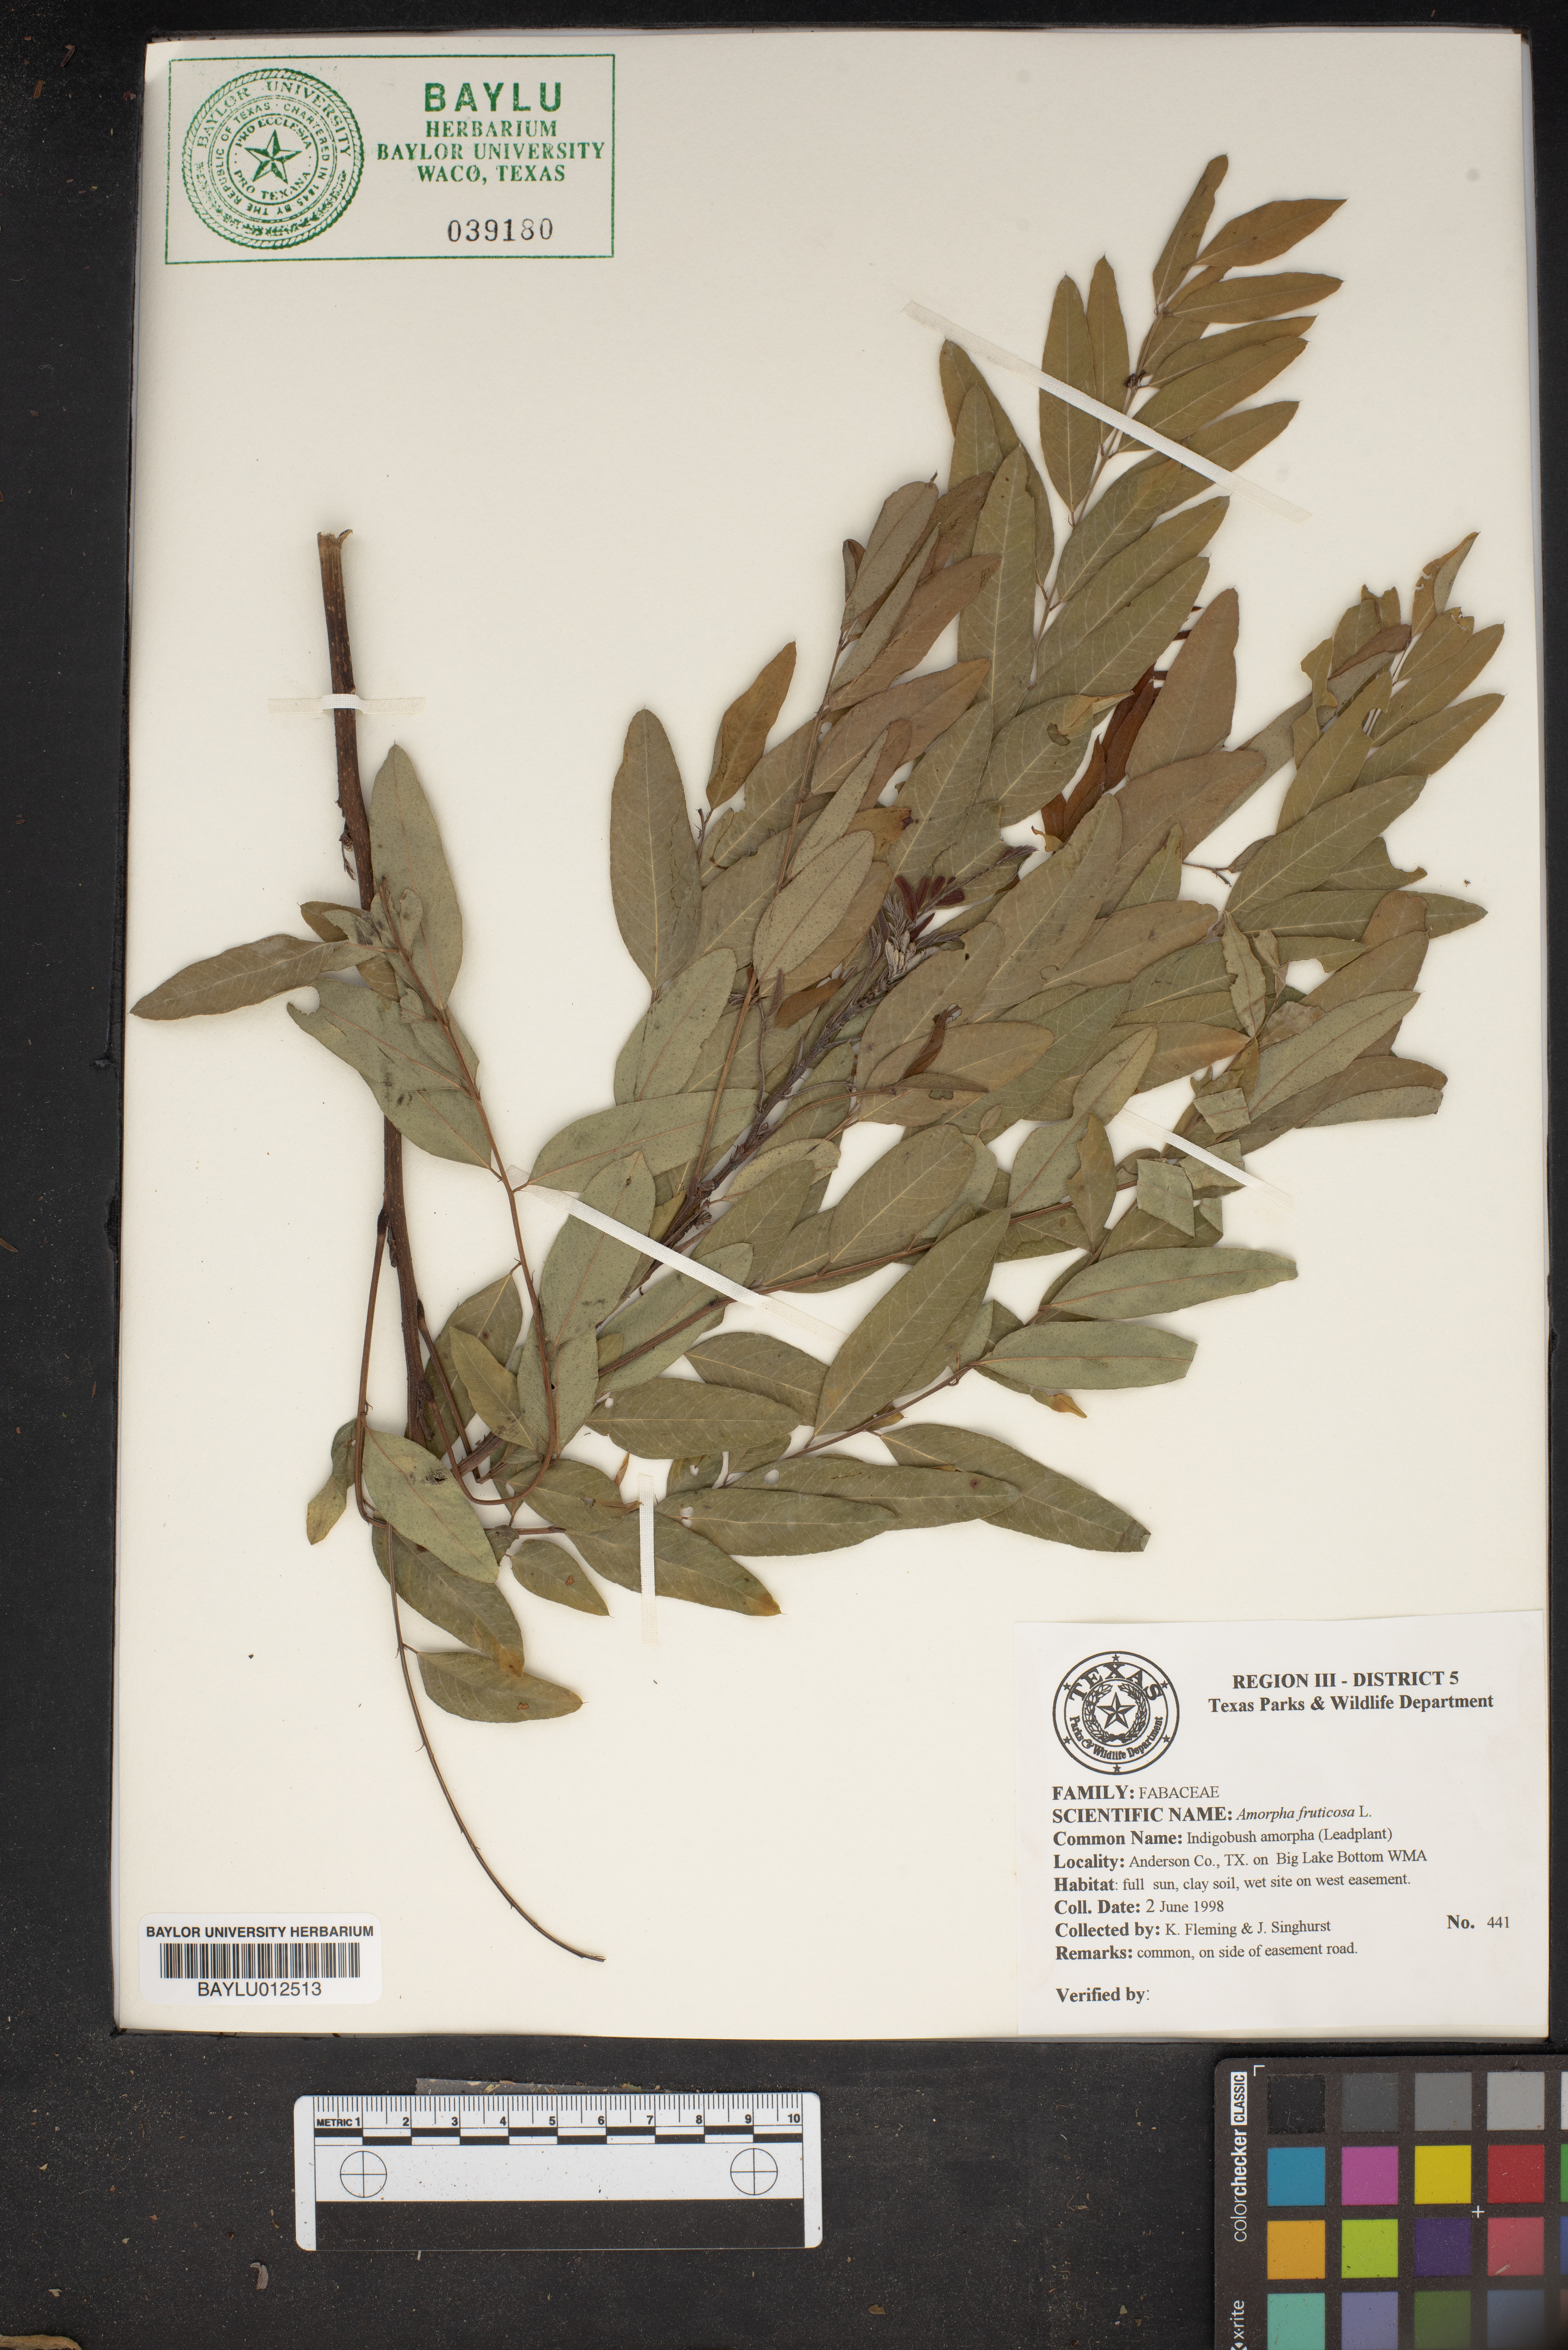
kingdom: Plantae
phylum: Tracheophyta
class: Magnoliopsida
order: Fabales
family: Fabaceae
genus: Amorpha
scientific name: Amorpha fruticosa
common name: False indigo
